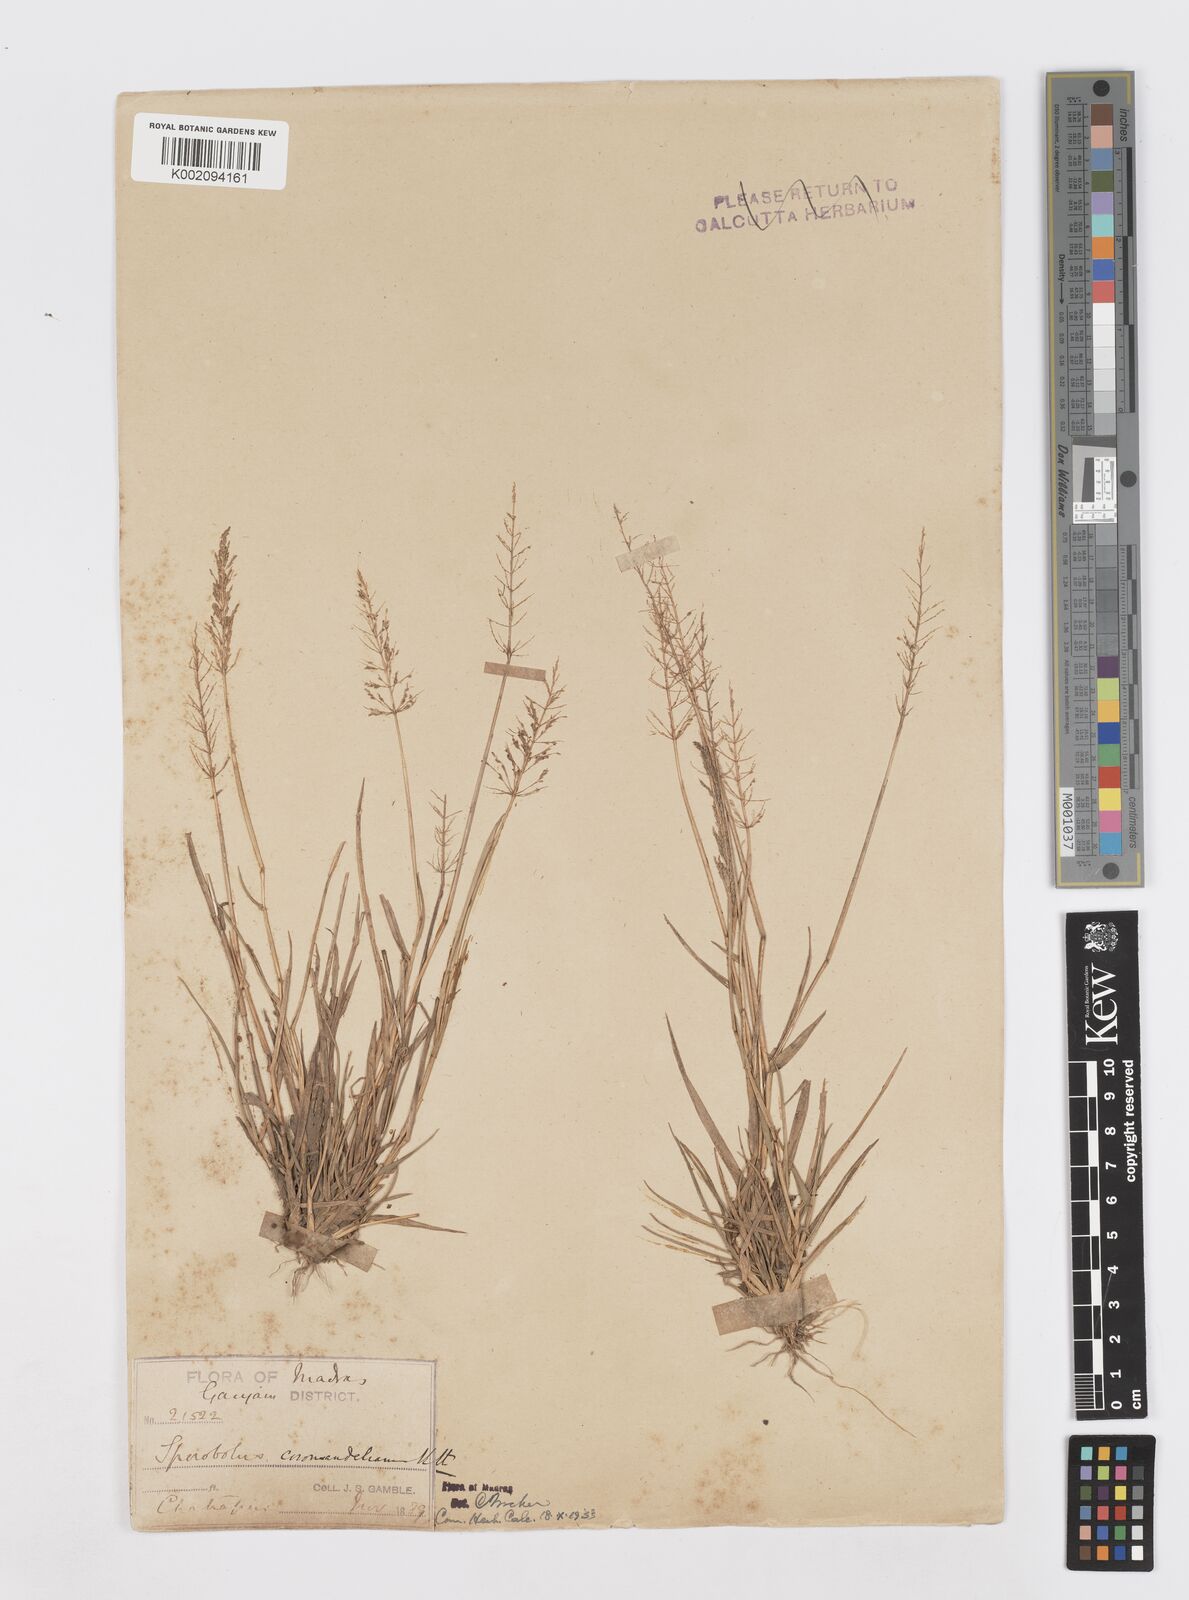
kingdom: Plantae
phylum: Tracheophyta
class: Liliopsida
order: Poales
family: Poaceae
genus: Sporobolus
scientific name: Sporobolus coromandelianus
